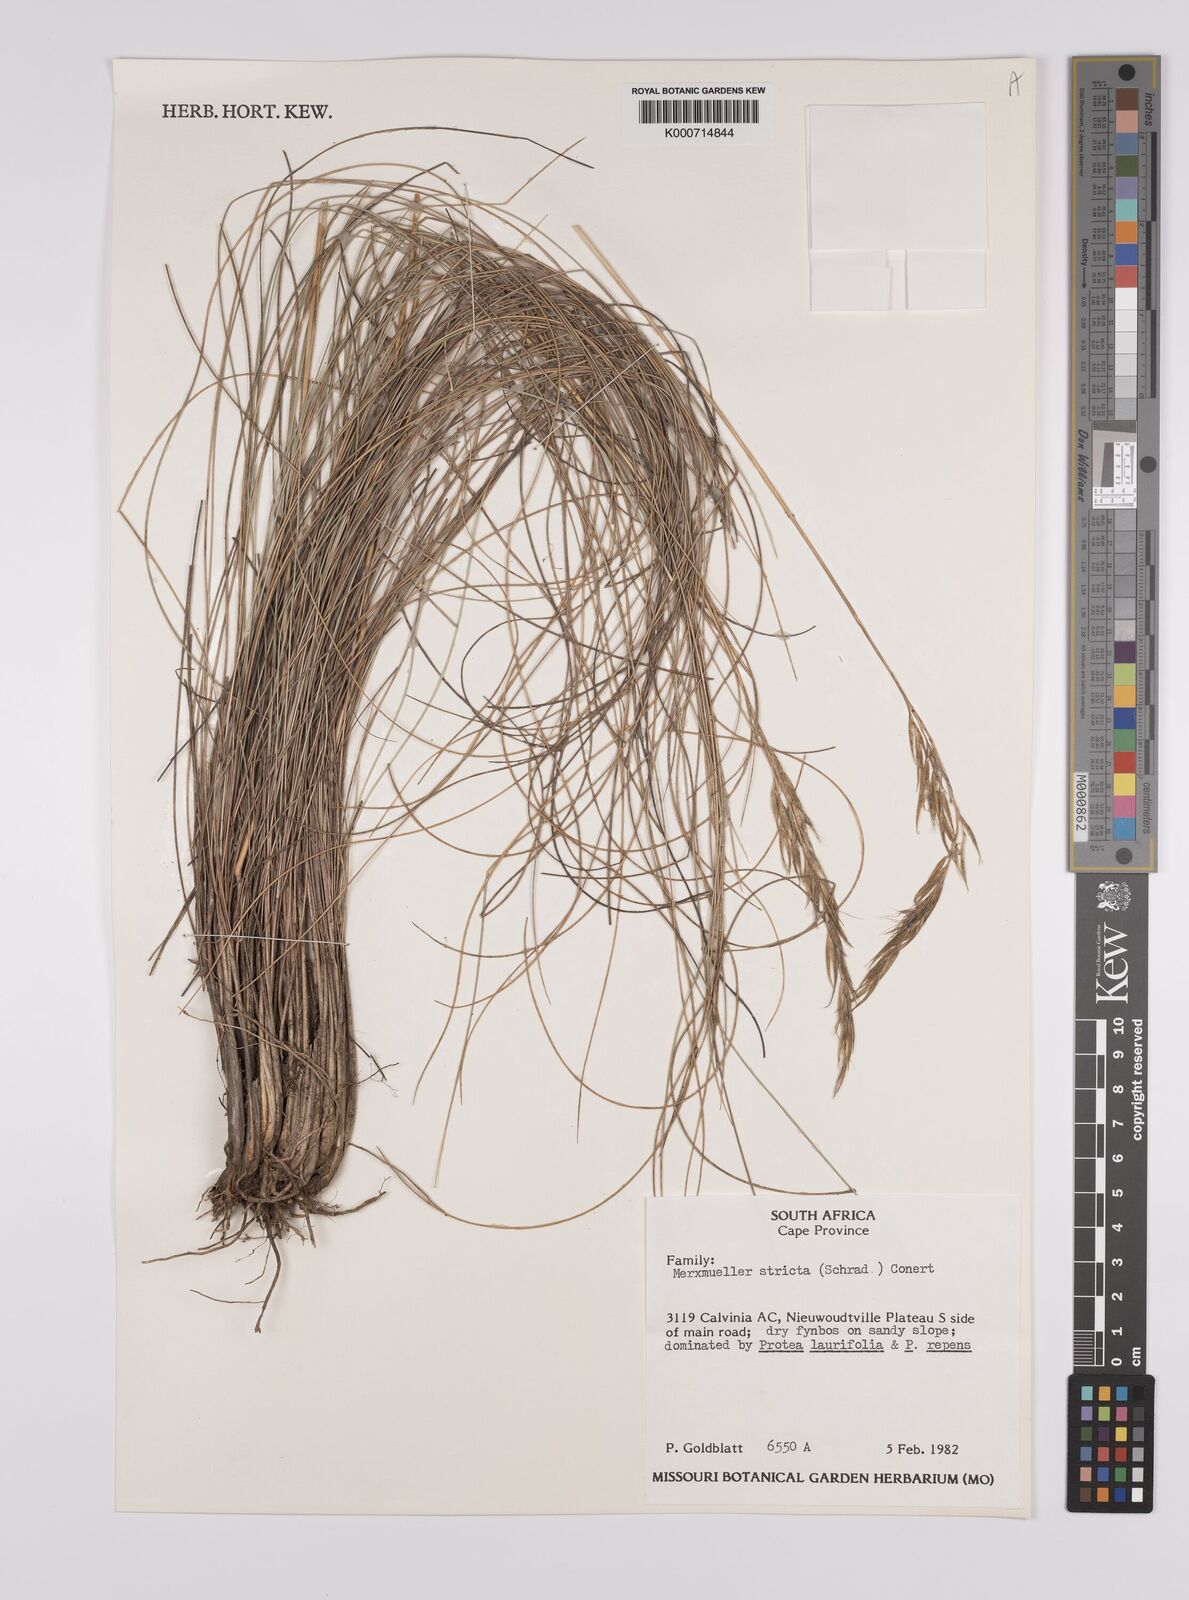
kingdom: Plantae
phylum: Tracheophyta
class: Liliopsida
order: Poales
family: Poaceae
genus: Rytidosperma
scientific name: Rytidosperma
